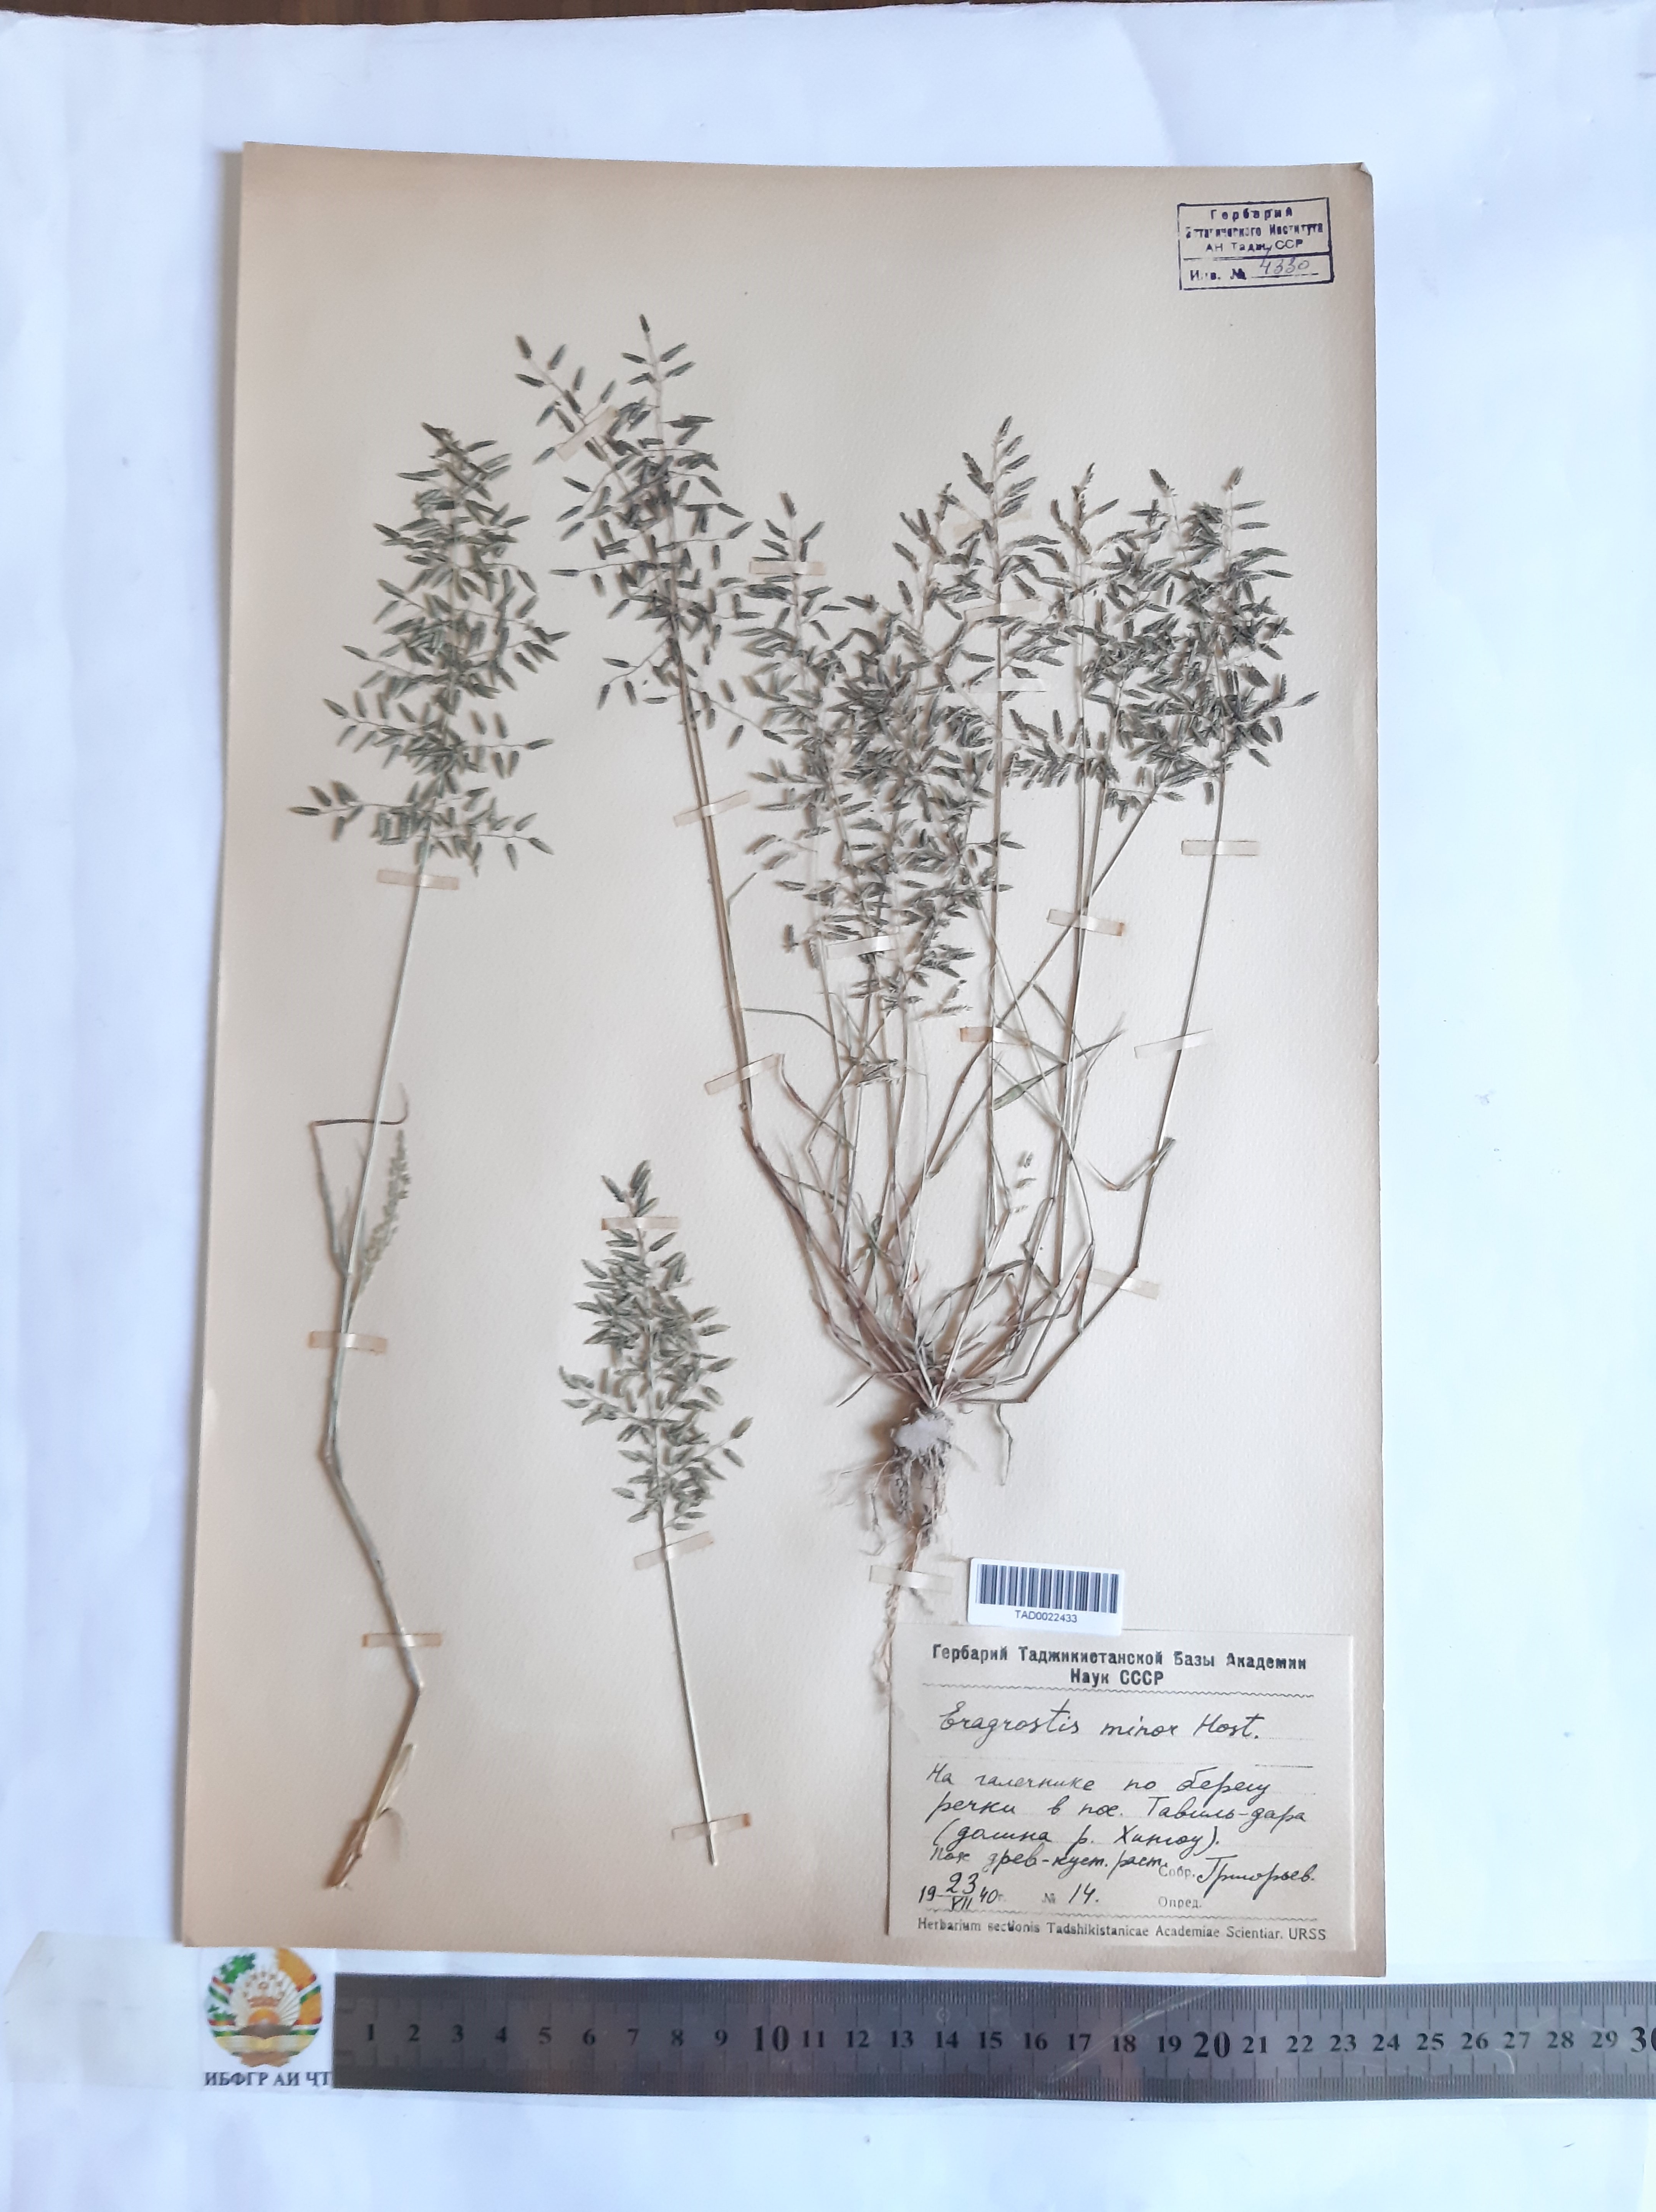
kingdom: Plantae
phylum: Tracheophyta
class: Liliopsida
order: Poales
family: Poaceae
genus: Eragrostis
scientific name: Eragrostis minor
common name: Small love-grass
